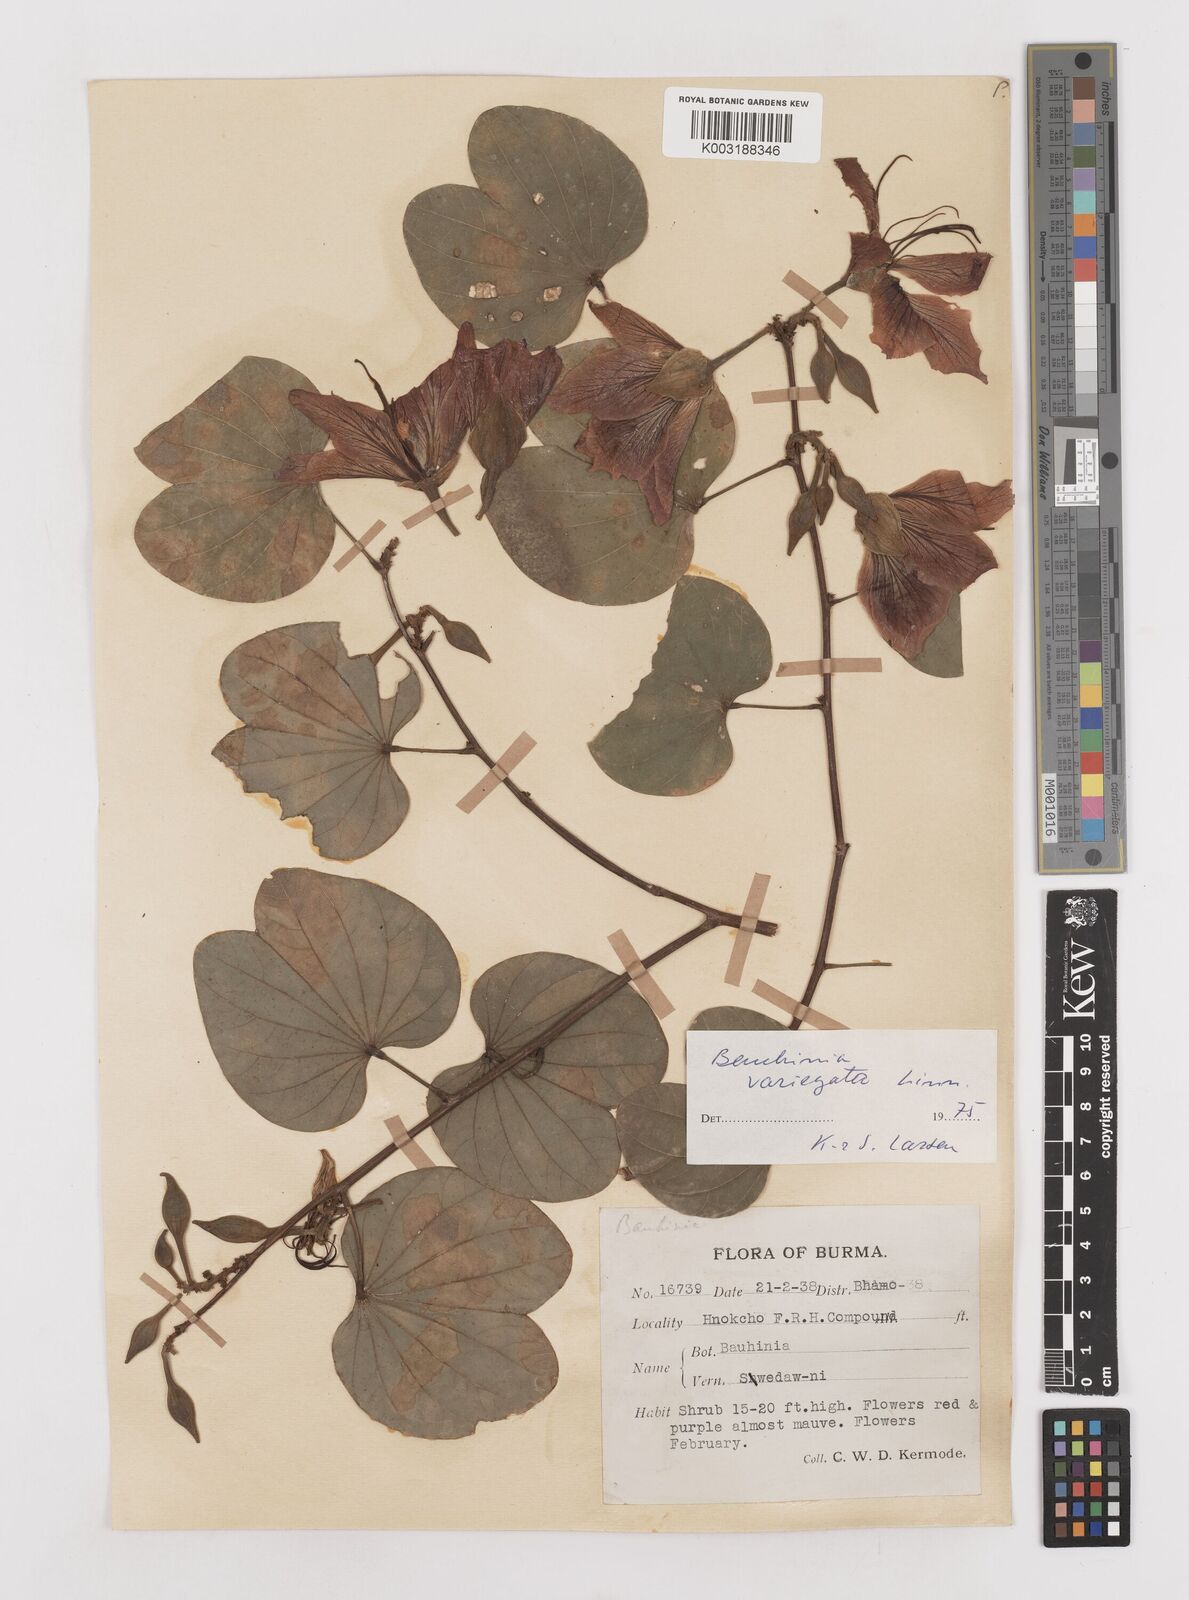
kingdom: Plantae
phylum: Tracheophyta
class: Magnoliopsida
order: Fabales
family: Fabaceae
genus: Bauhinia
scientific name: Bauhinia variegata
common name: Mountain ebony
